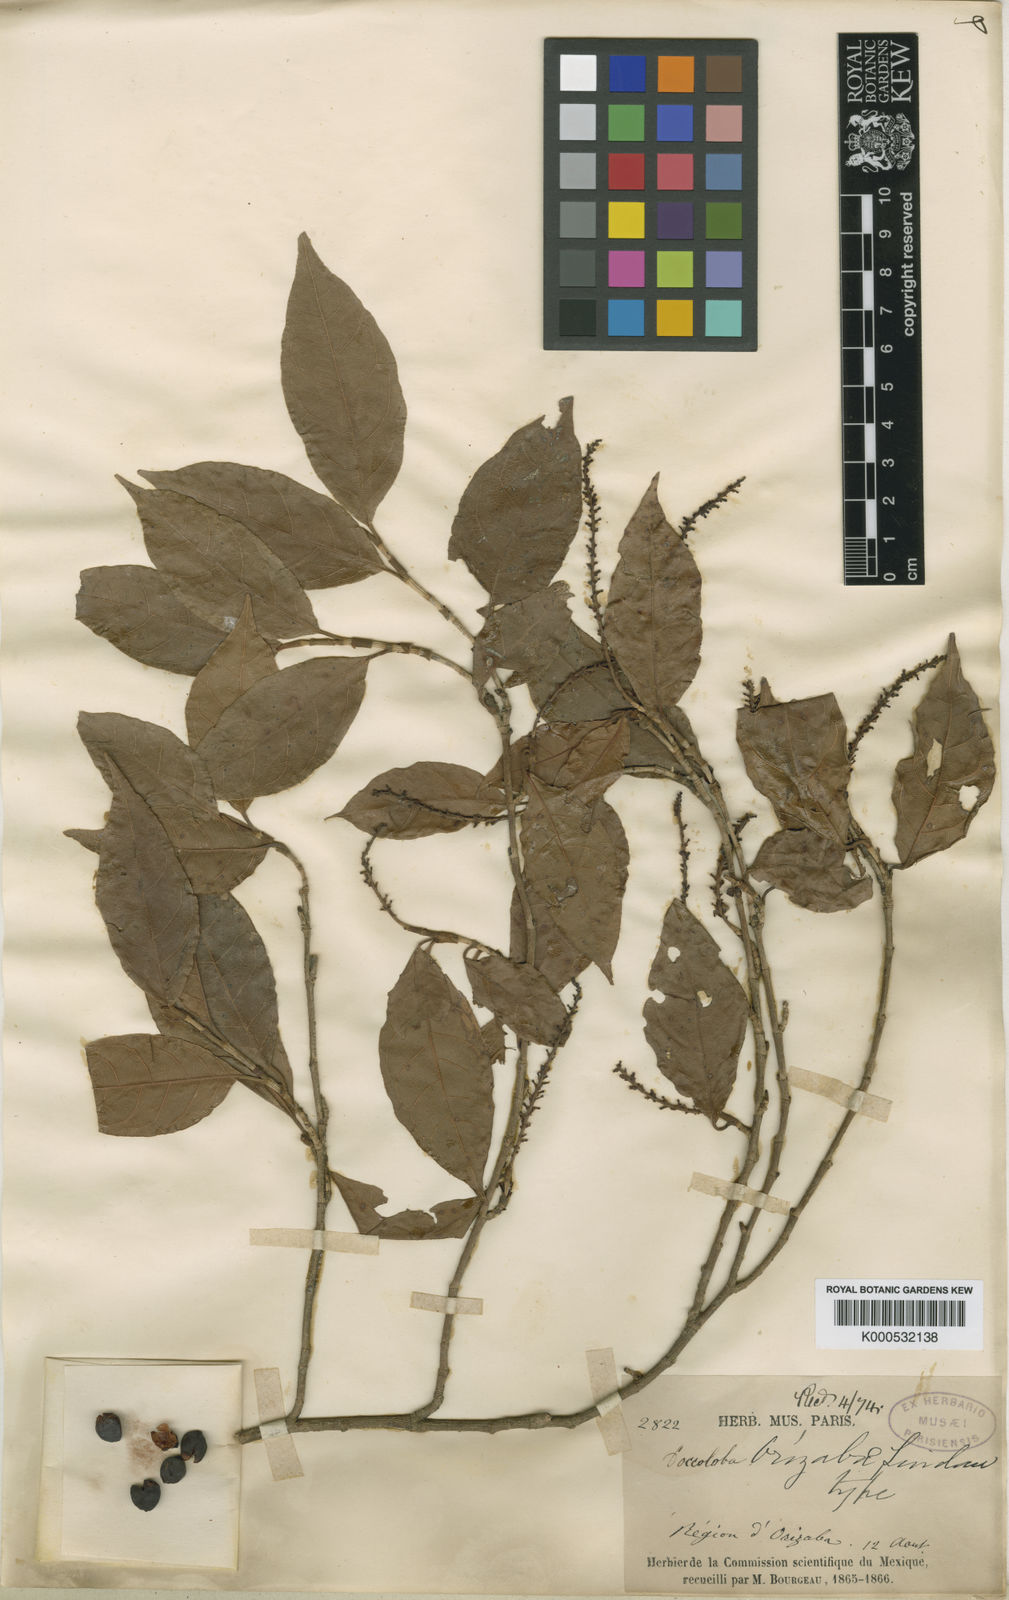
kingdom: Plantae
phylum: Tracheophyta
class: Magnoliopsida
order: Caryophyllales
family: Polygonaceae
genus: Coccoloba
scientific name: Coccoloba humboldtii
